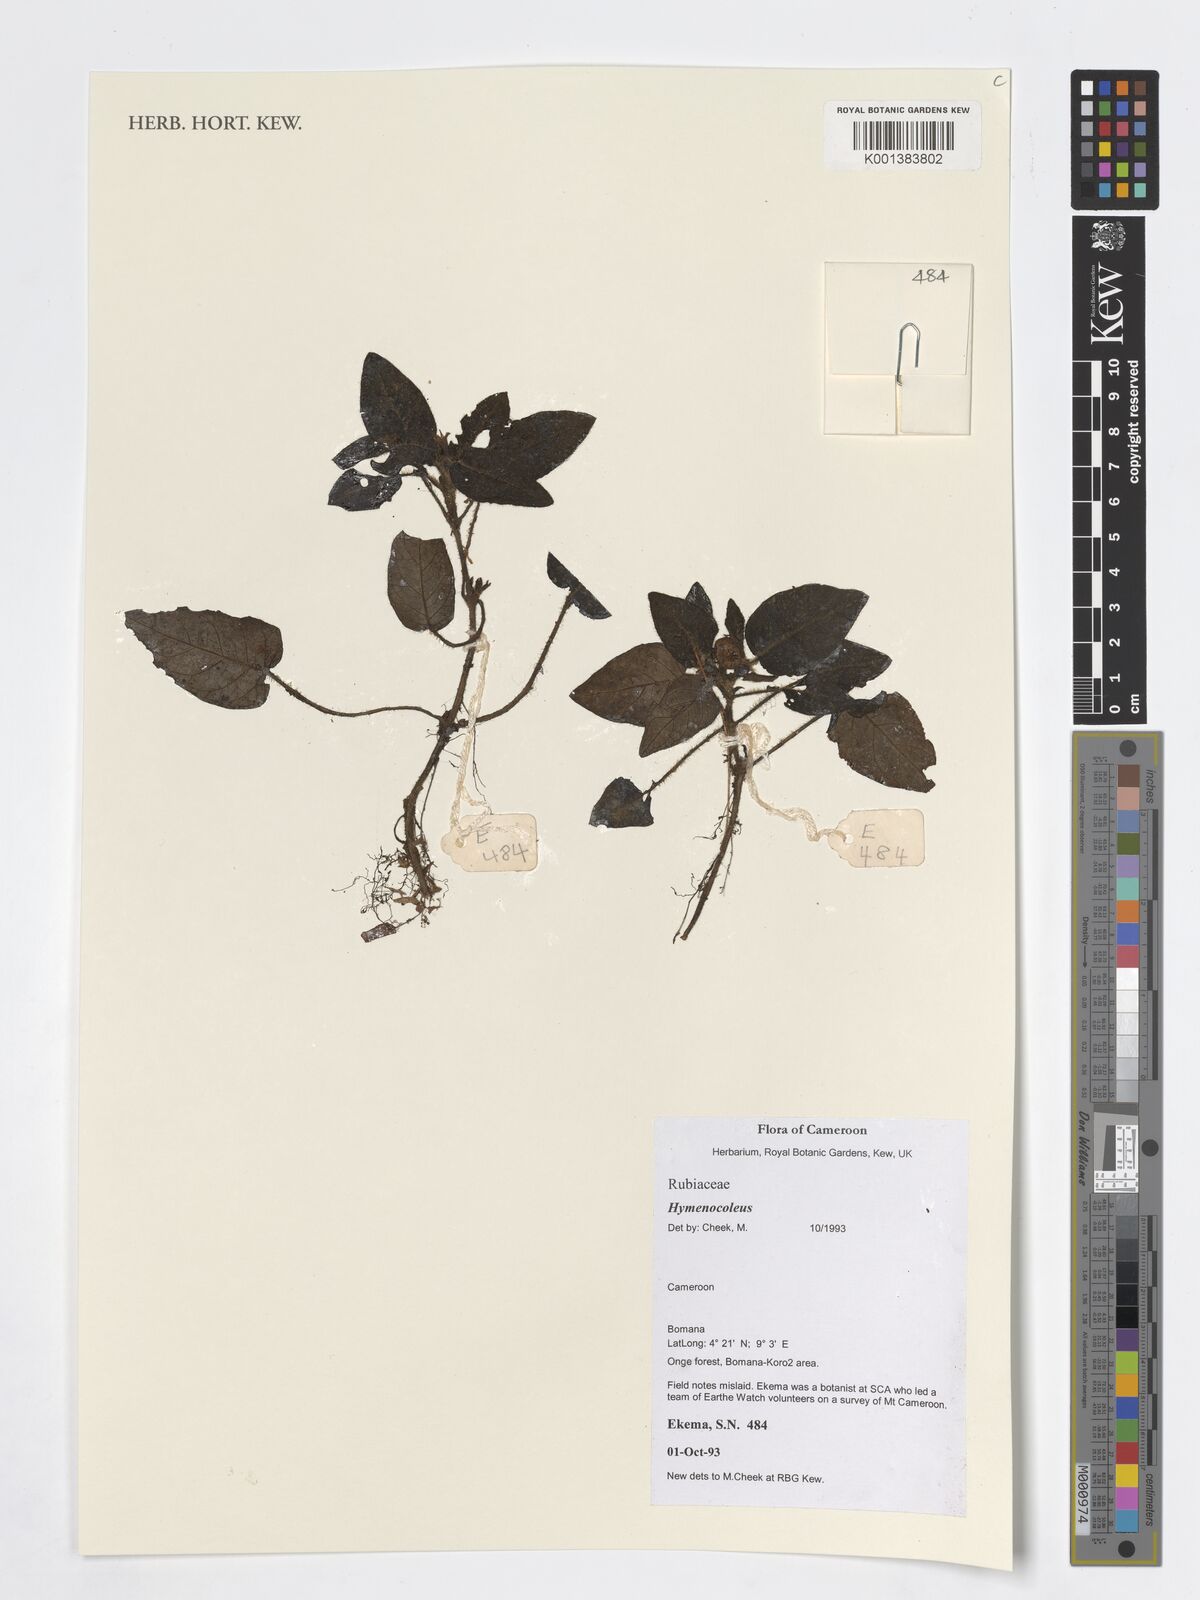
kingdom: Plantae
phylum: Tracheophyta
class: Magnoliopsida
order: Gentianales
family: Rubiaceae
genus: Hymenocoleus
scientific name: Hymenocoleus
